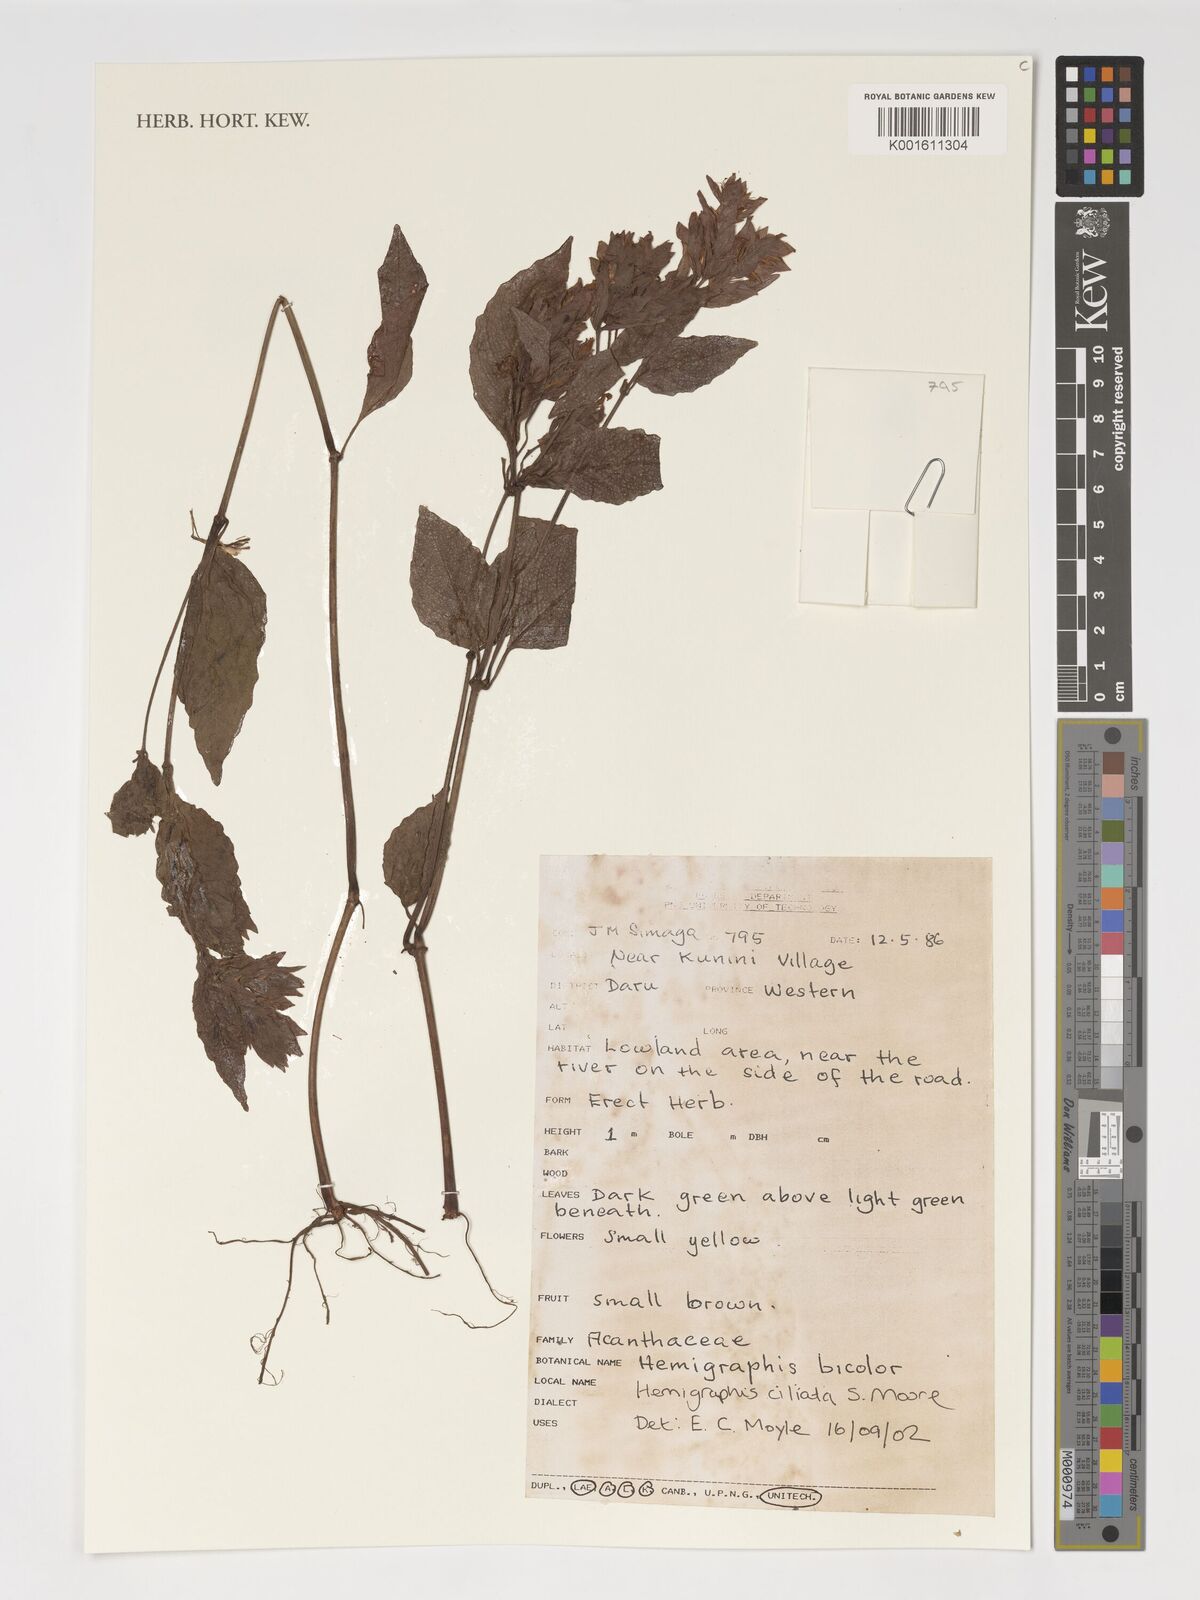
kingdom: Plantae
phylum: Tracheophyta
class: Magnoliopsida
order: Lamiales
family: Acanthaceae
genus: Strobilanthes
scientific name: Strobilanthes linearifolia
